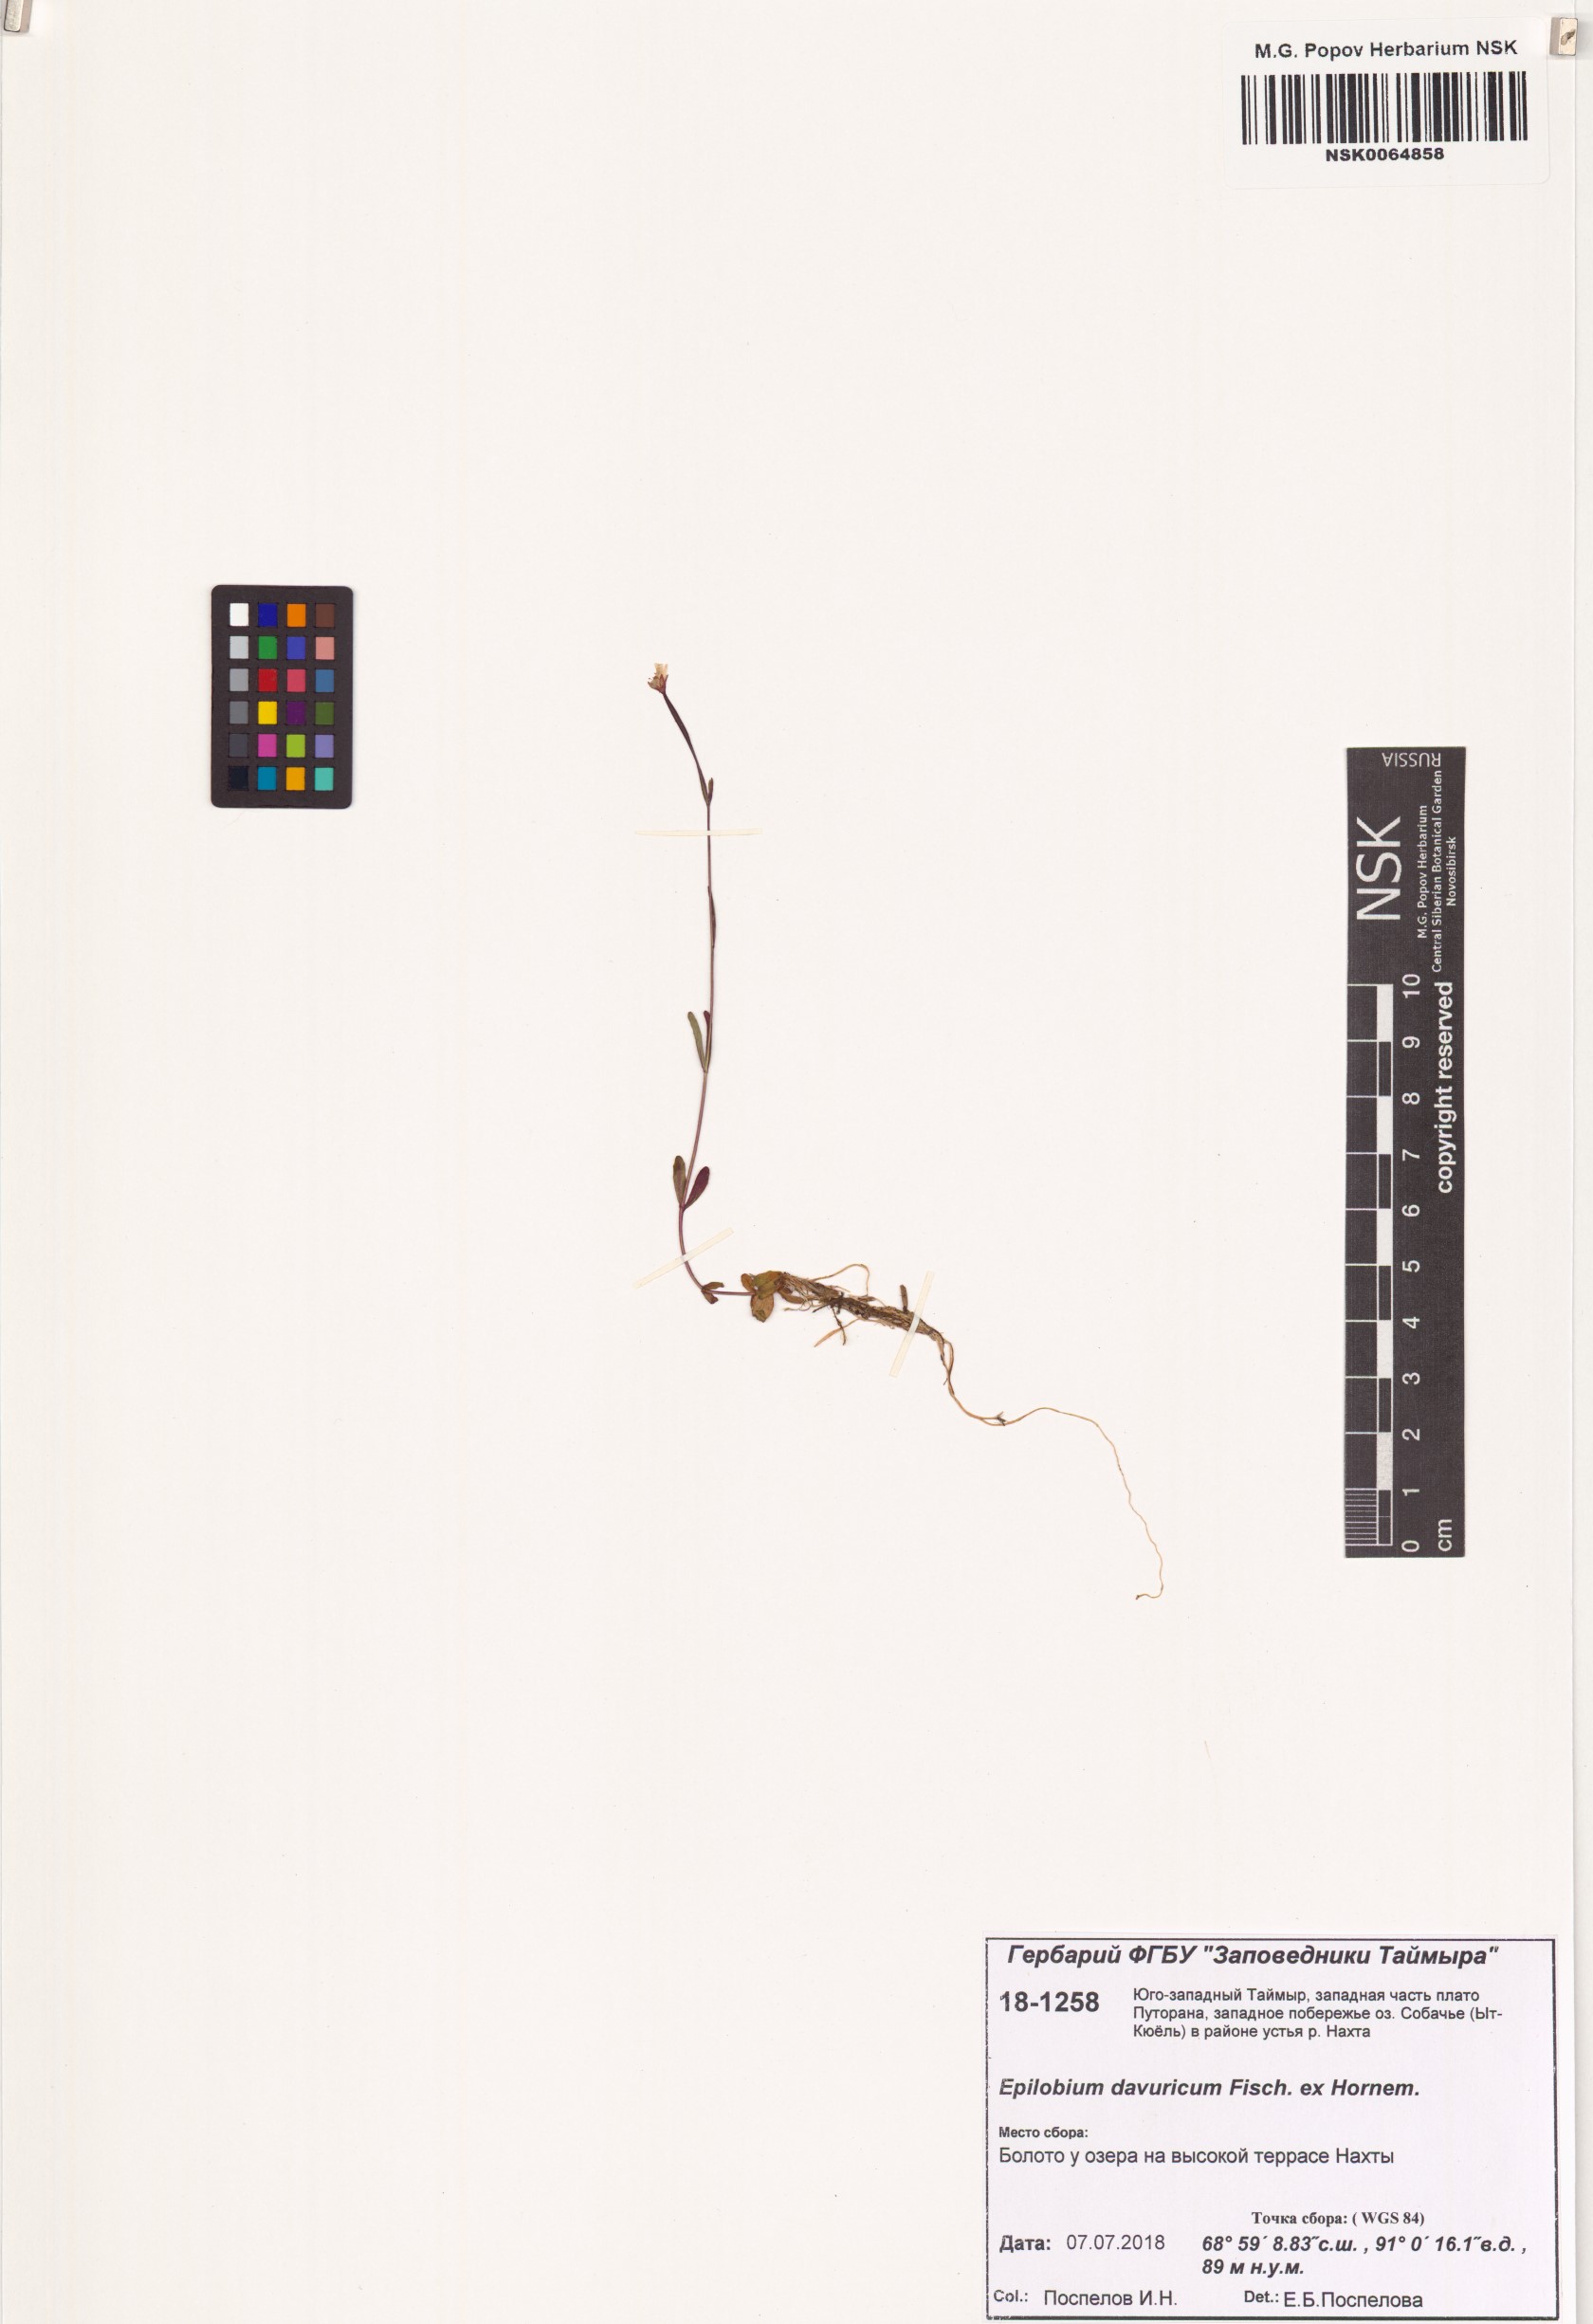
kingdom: Plantae
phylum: Tracheophyta
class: Magnoliopsida
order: Myrtales
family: Onagraceae
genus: Epilobium
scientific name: Epilobium davuricum
